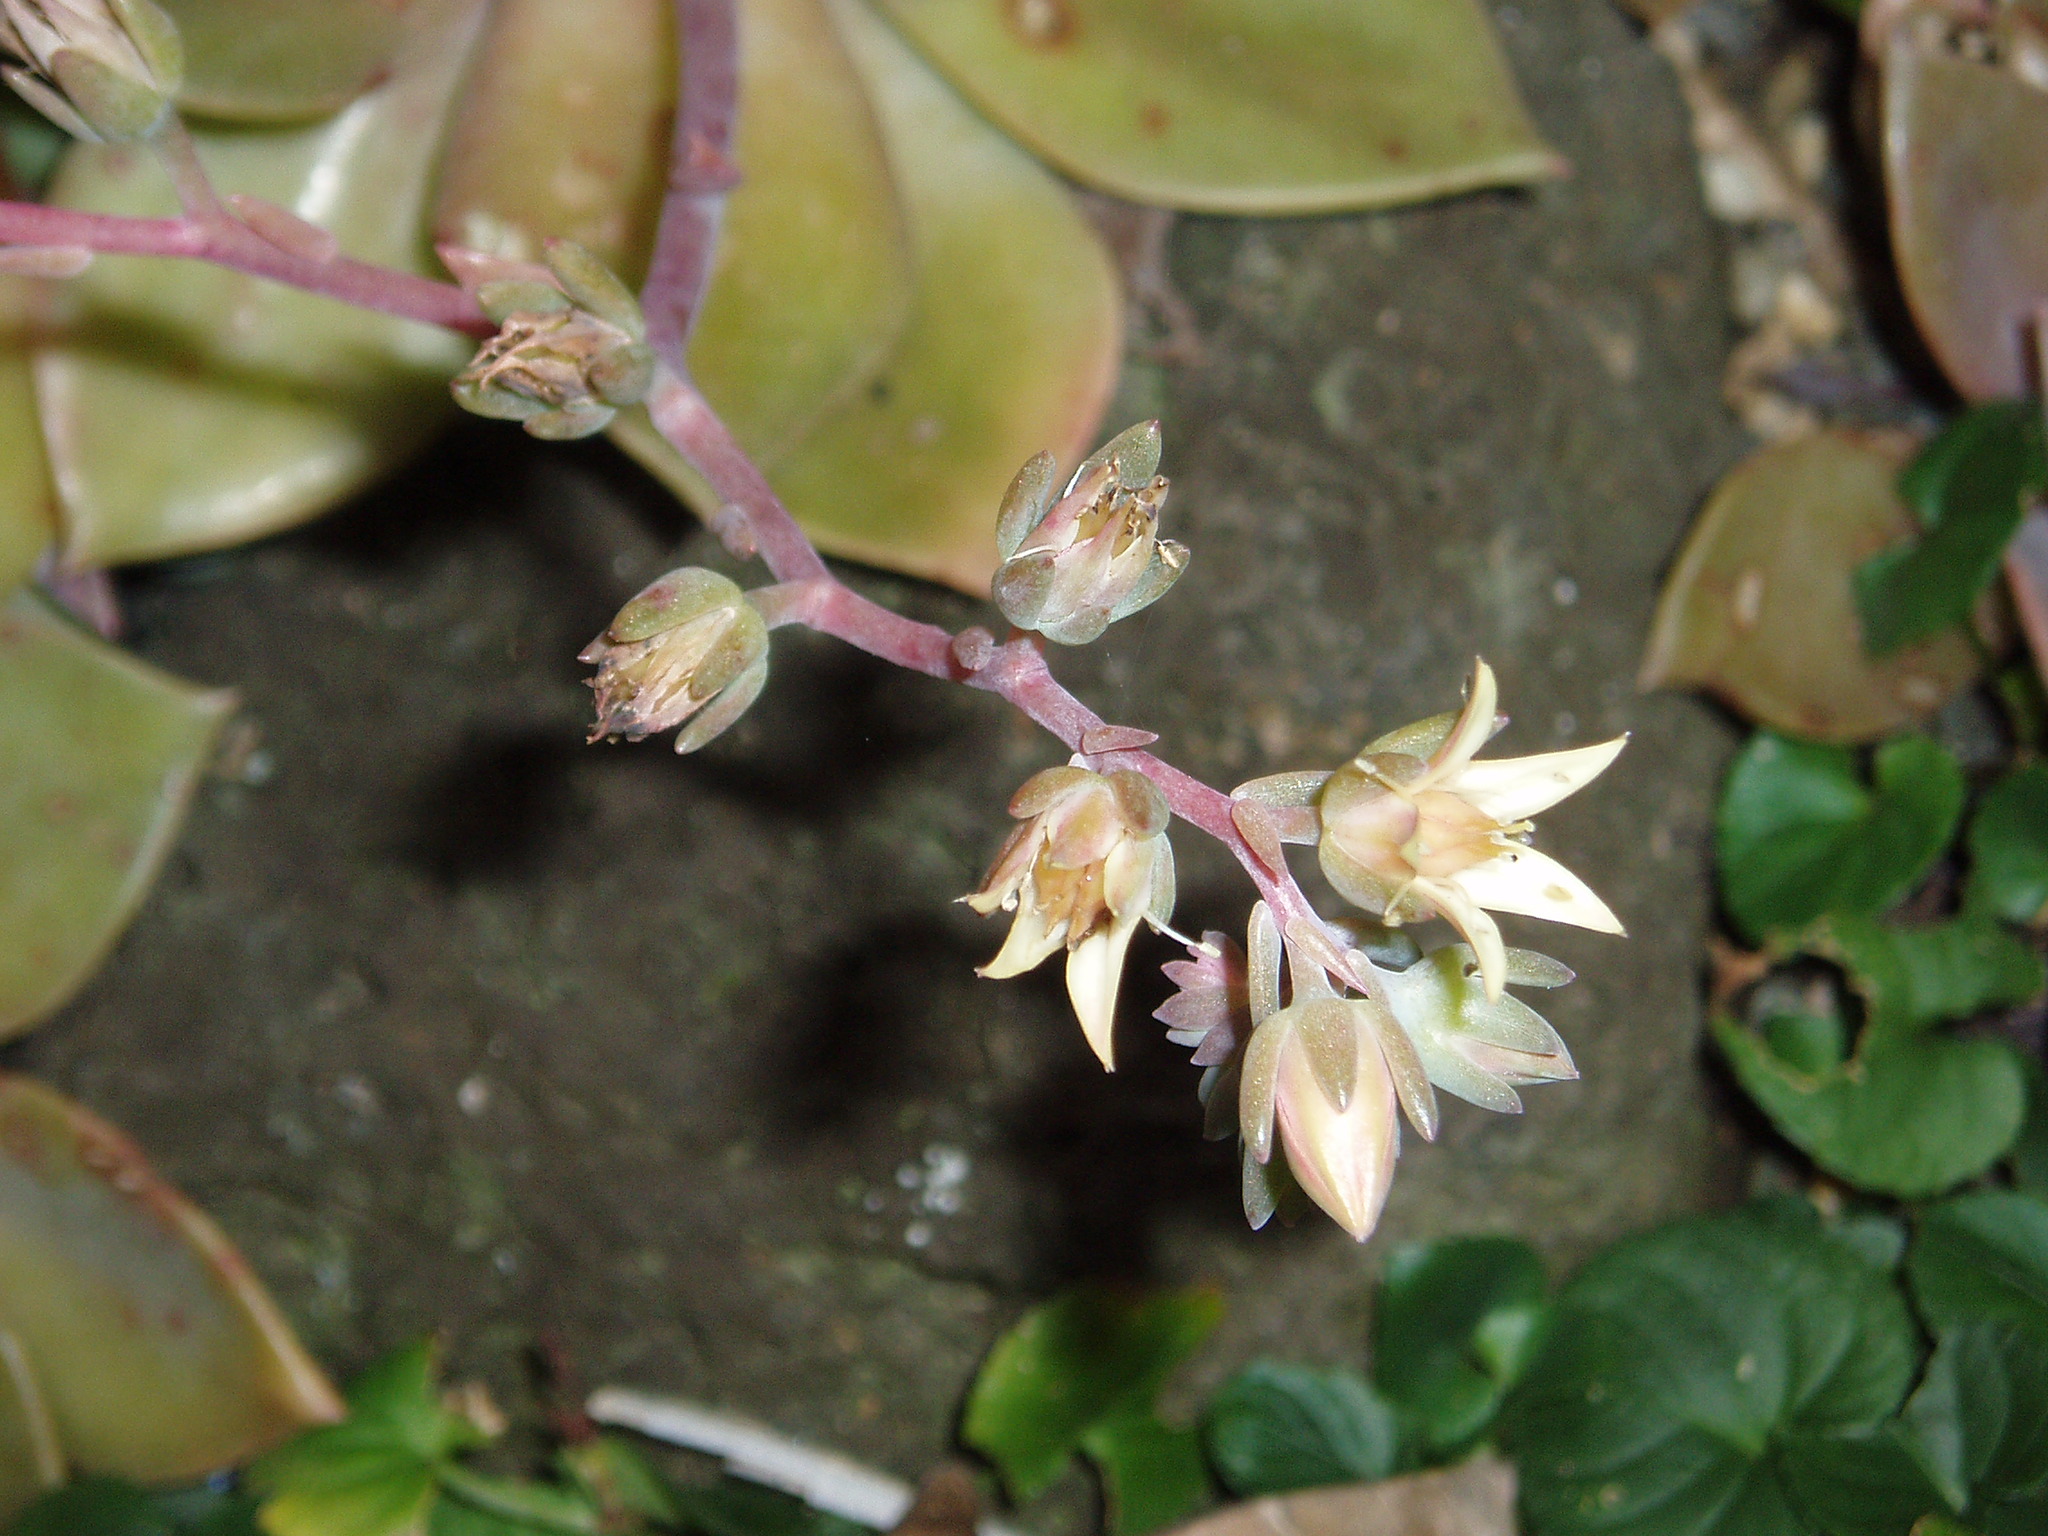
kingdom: Plantae
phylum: Tracheophyta
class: Magnoliopsida
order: Saxifragales
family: Crassulaceae
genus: Graptopetalum
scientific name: Graptopetalum paraguayense
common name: Mother-of-pearl-plant
